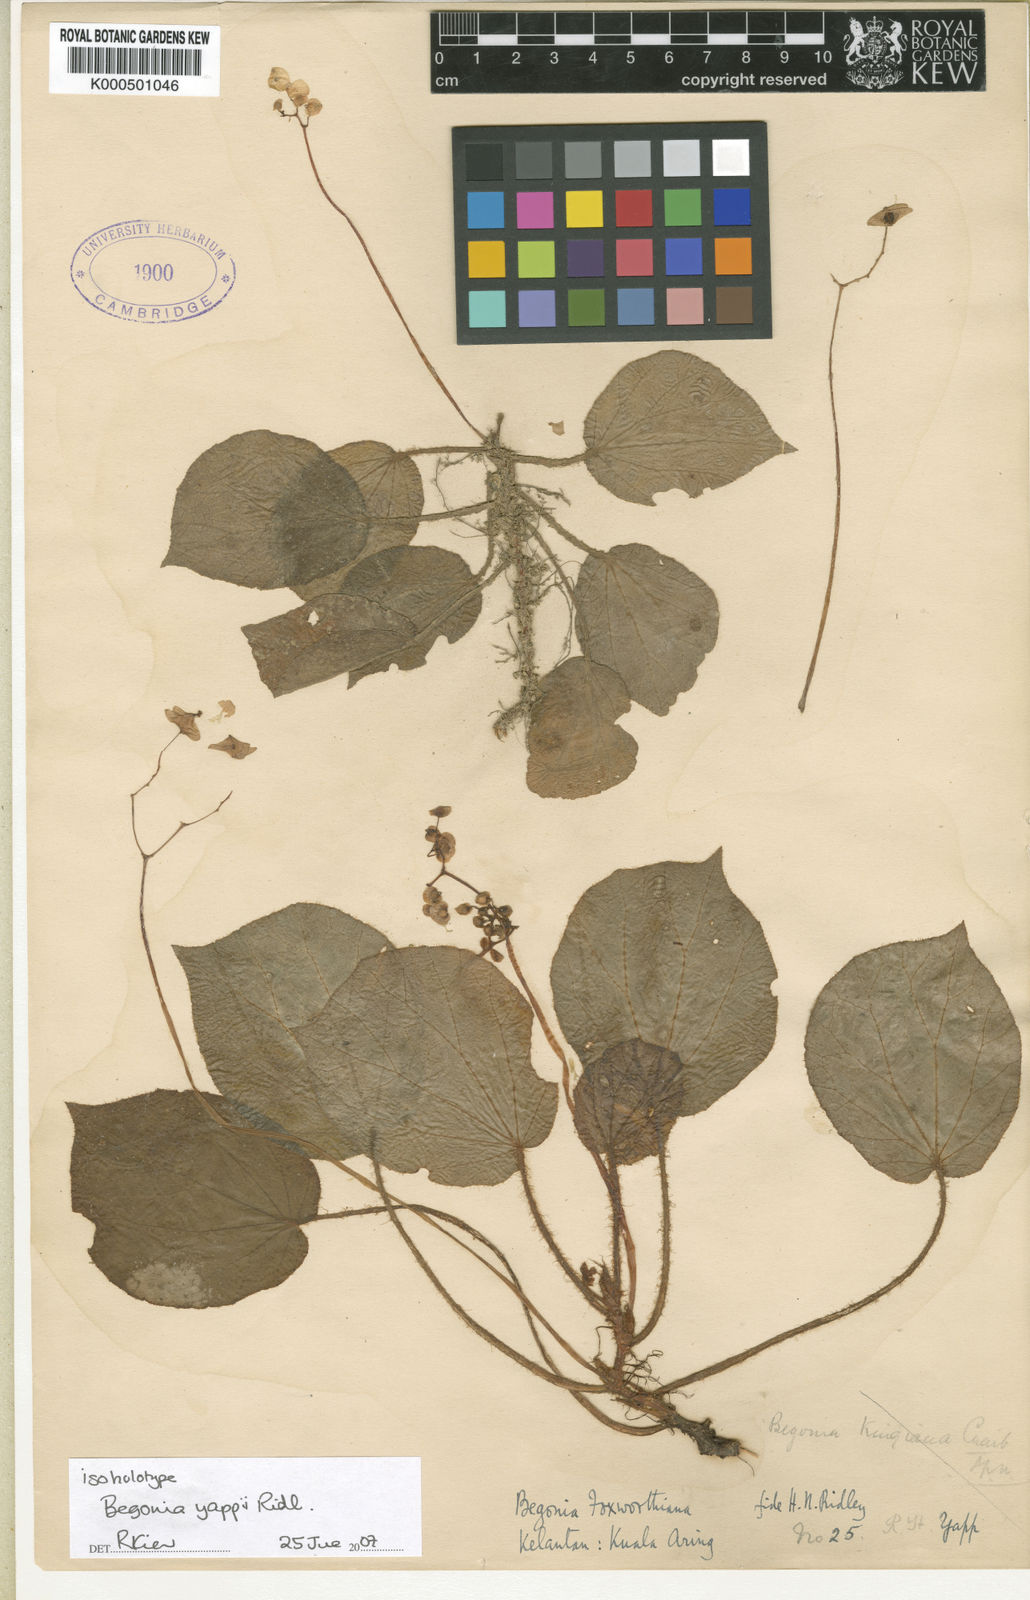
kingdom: Plantae
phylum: Tracheophyta
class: Magnoliopsida
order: Cucurbitales
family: Begoniaceae
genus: Begonia
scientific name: Begonia yappii
